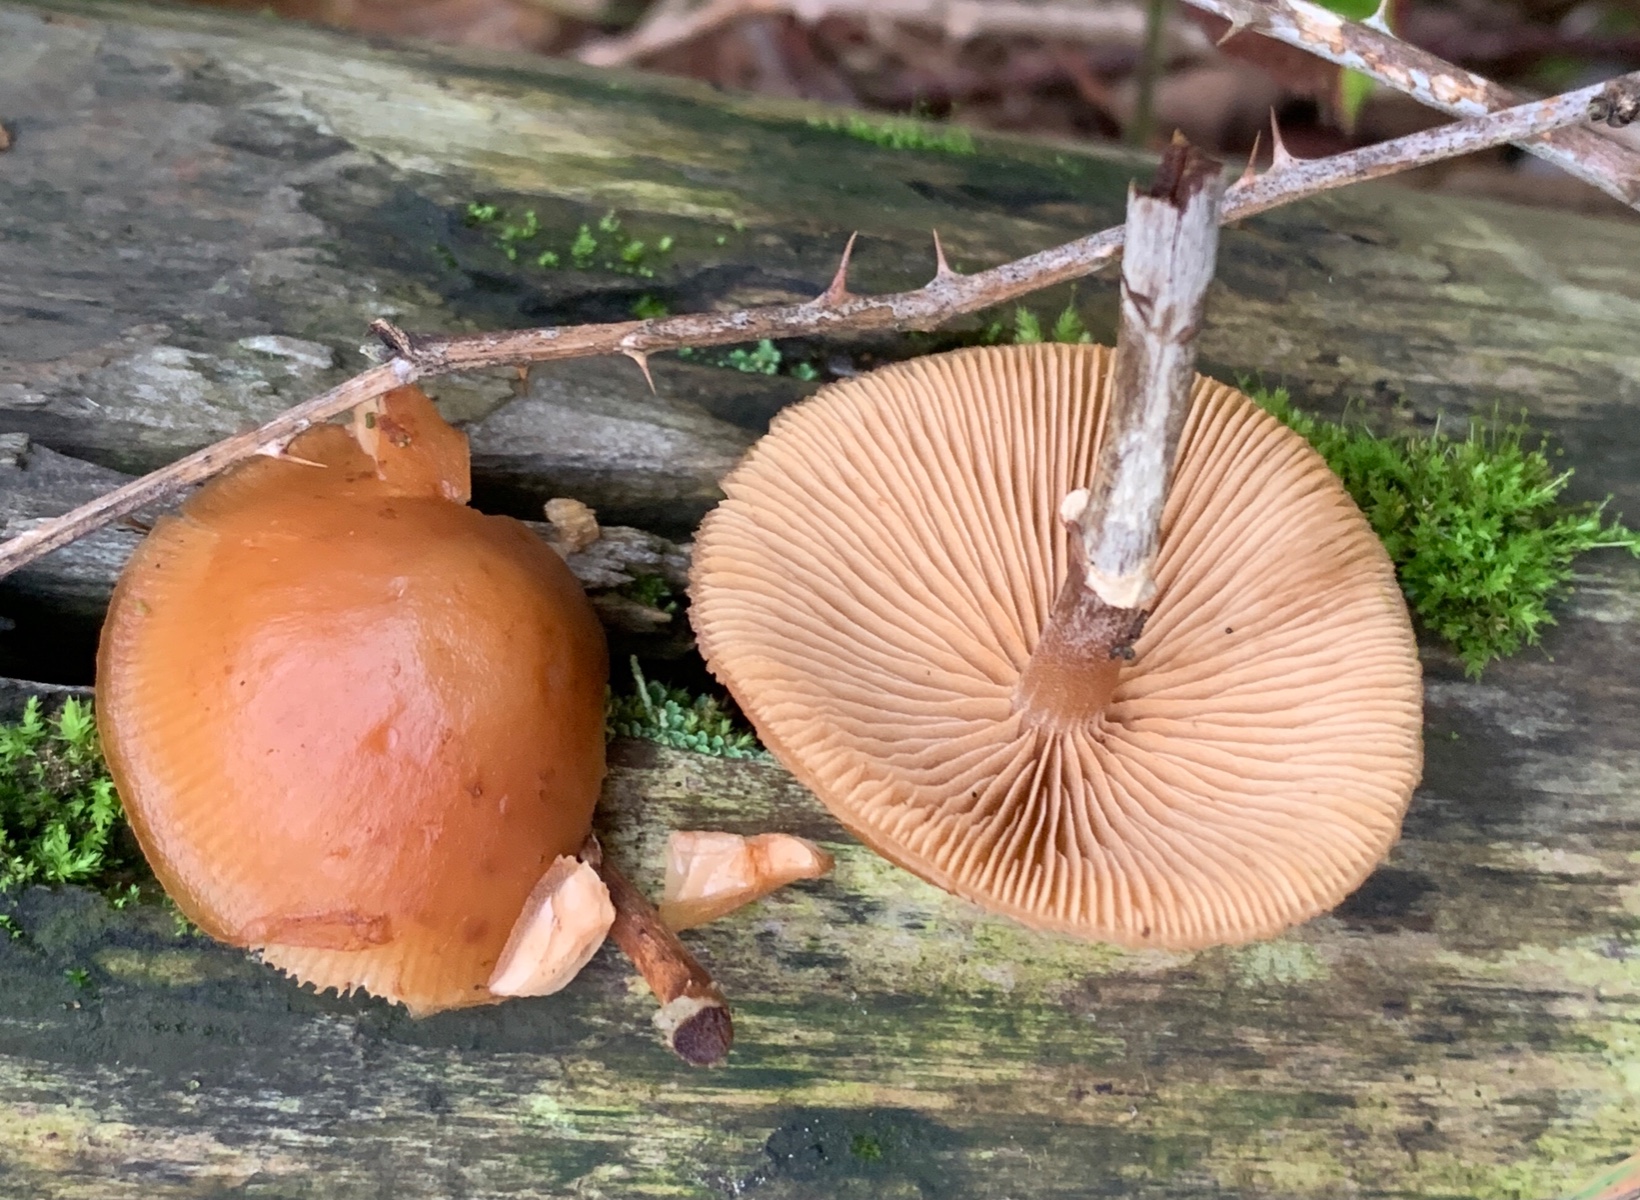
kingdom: Fungi
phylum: Basidiomycota
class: Agaricomycetes
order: Agaricales
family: Hymenogastraceae
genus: Galerina
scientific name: Galerina marginata
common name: randbæltet hjelmhat
